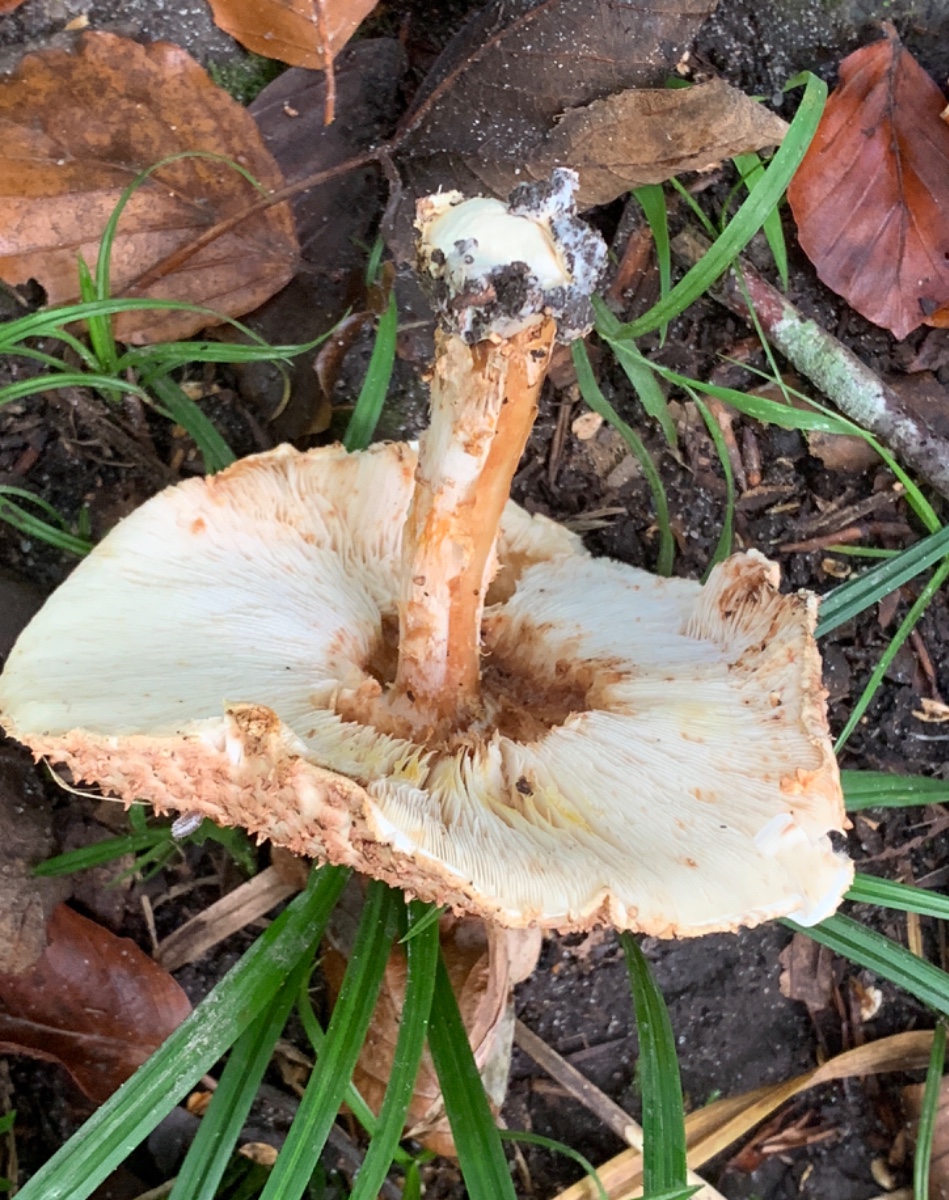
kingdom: Fungi
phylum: Basidiomycota
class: Agaricomycetes
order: Agaricales
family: Agaricaceae
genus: Echinoderma
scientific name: Echinoderma asperum
